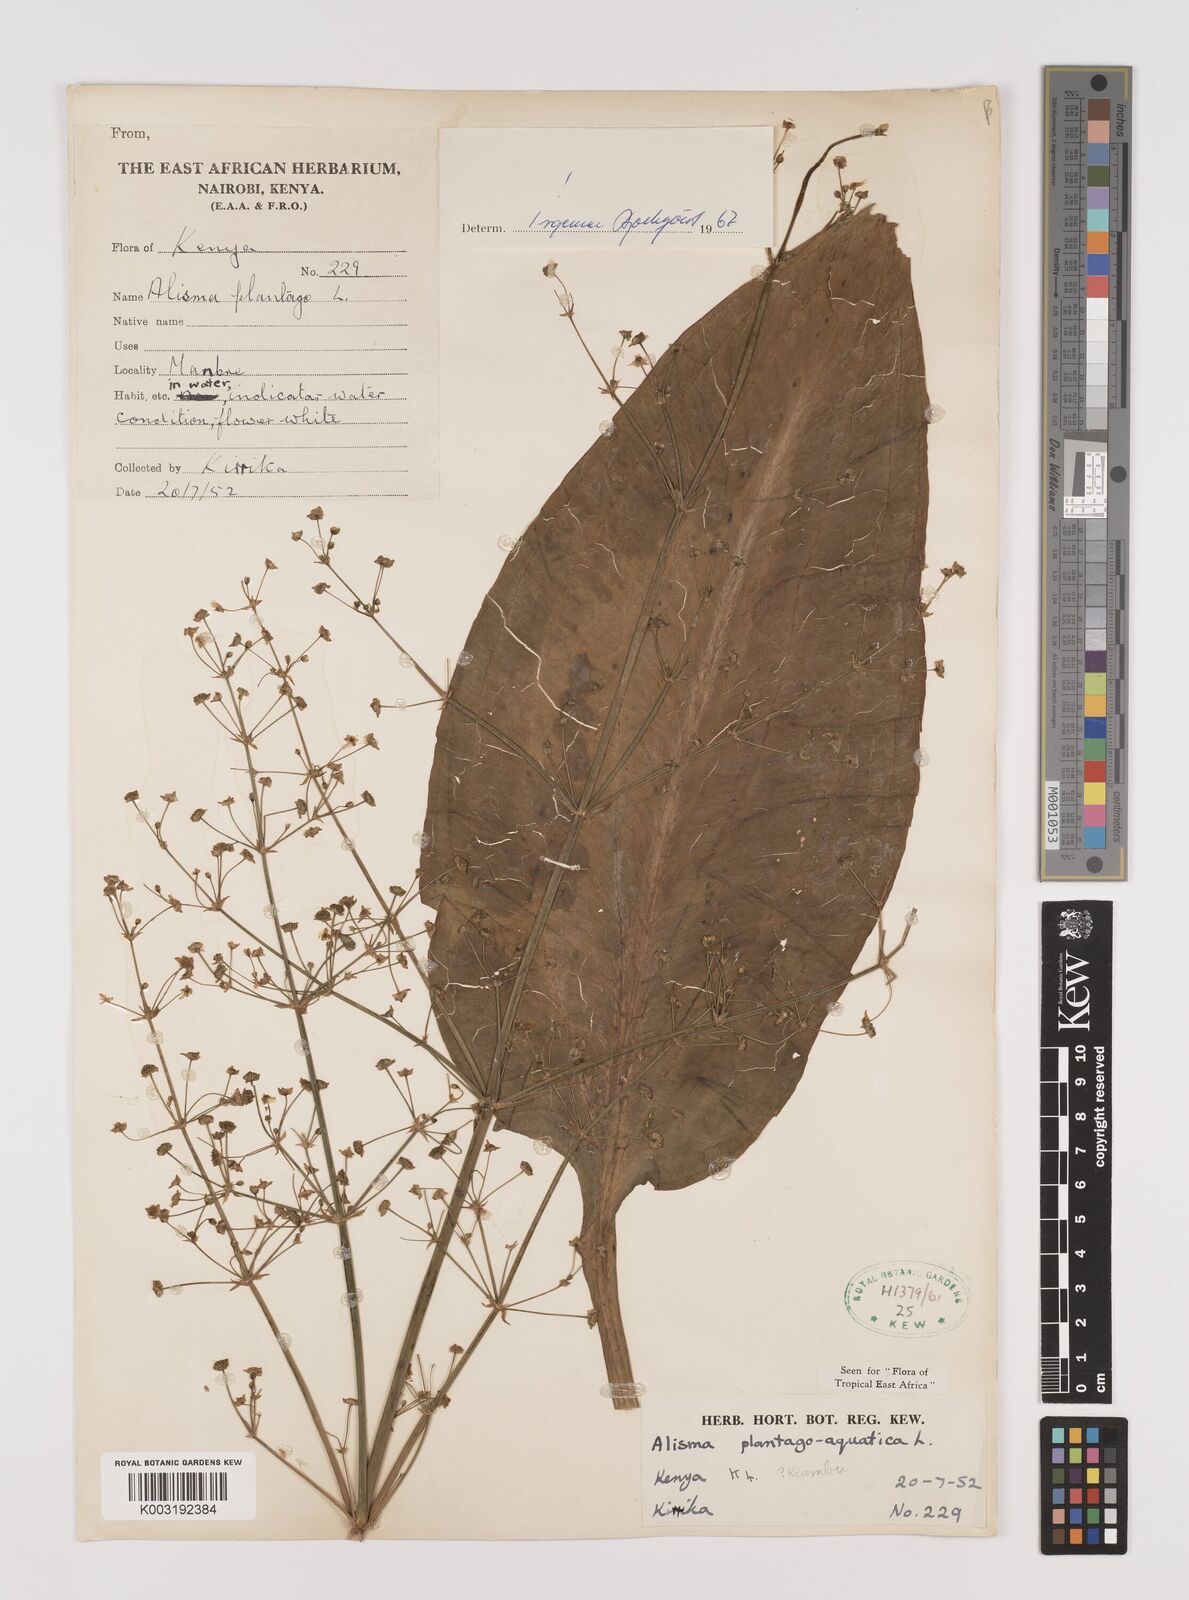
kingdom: Plantae
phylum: Tracheophyta
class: Liliopsida
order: Alismatales
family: Alismataceae
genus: Alisma
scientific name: Alisma plantago-aquatica
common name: Water-plantain
